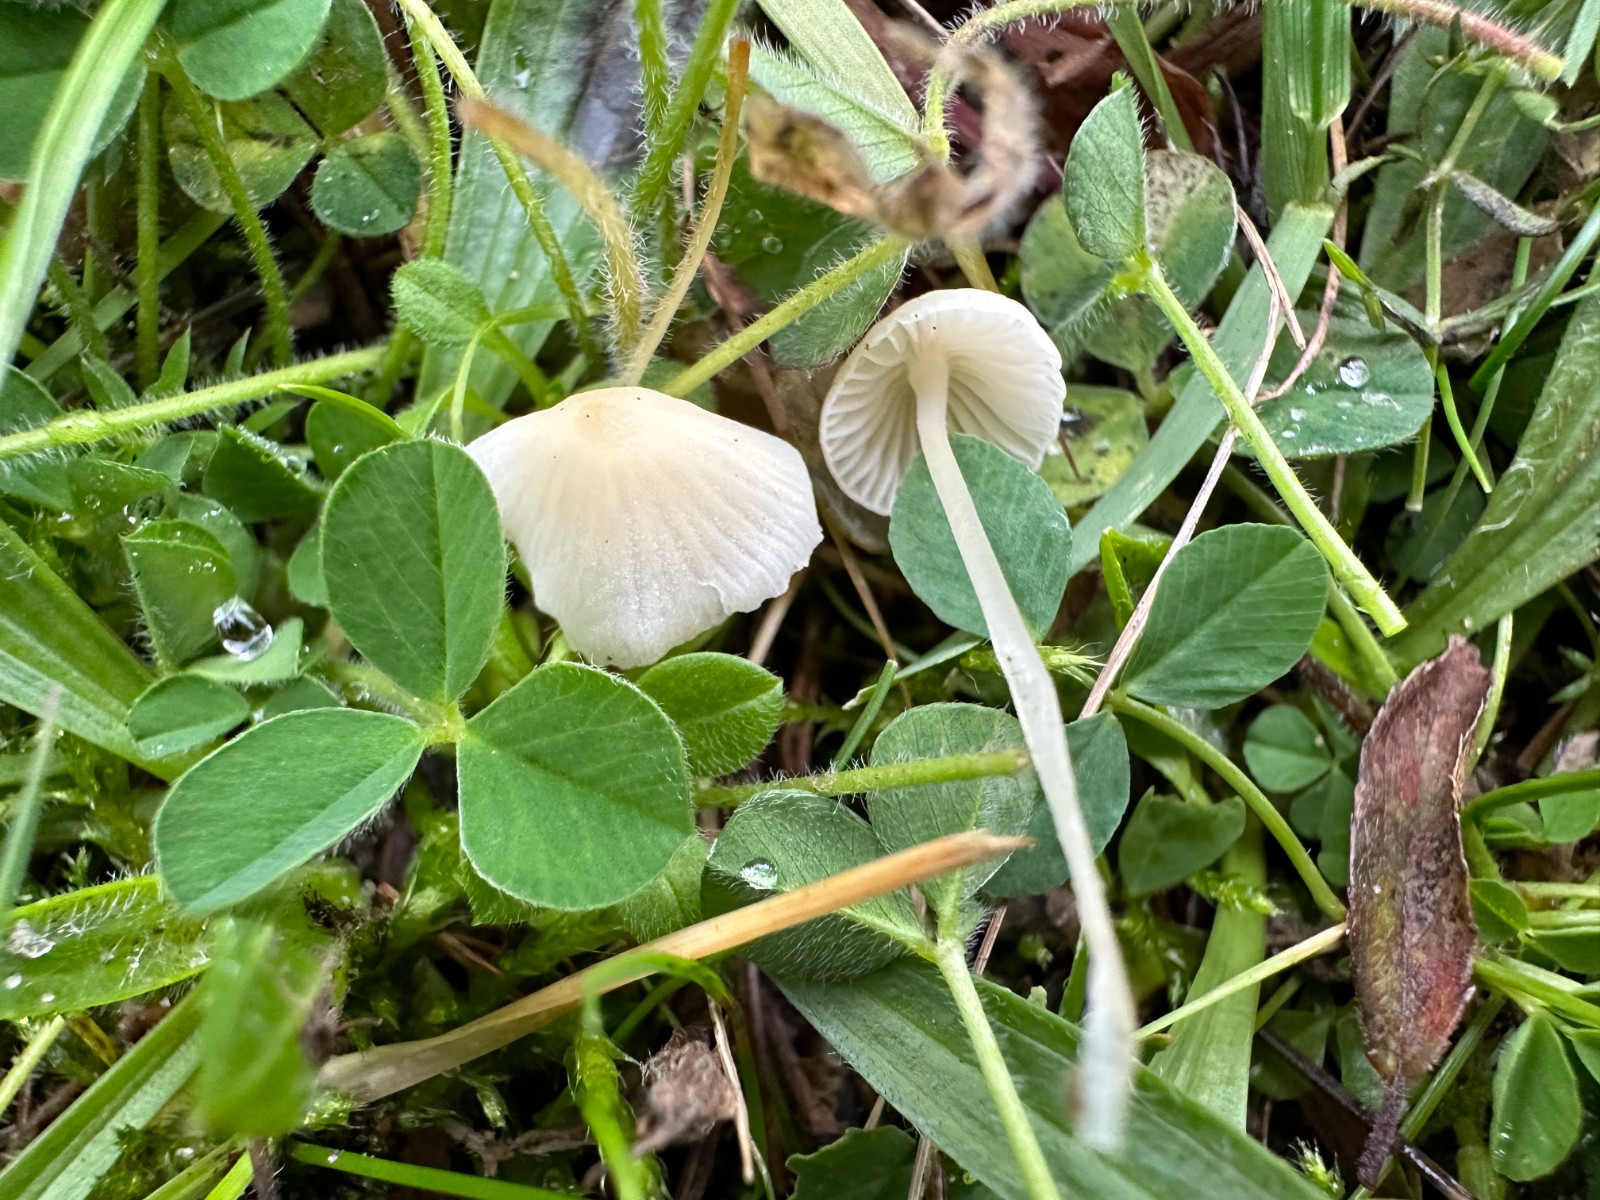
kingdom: Fungi
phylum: Basidiomycota
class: Agaricomycetes
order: Agaricales
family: Mycenaceae
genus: Atheniella
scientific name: Atheniella flavoalba
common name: gulhvid huesvamp
